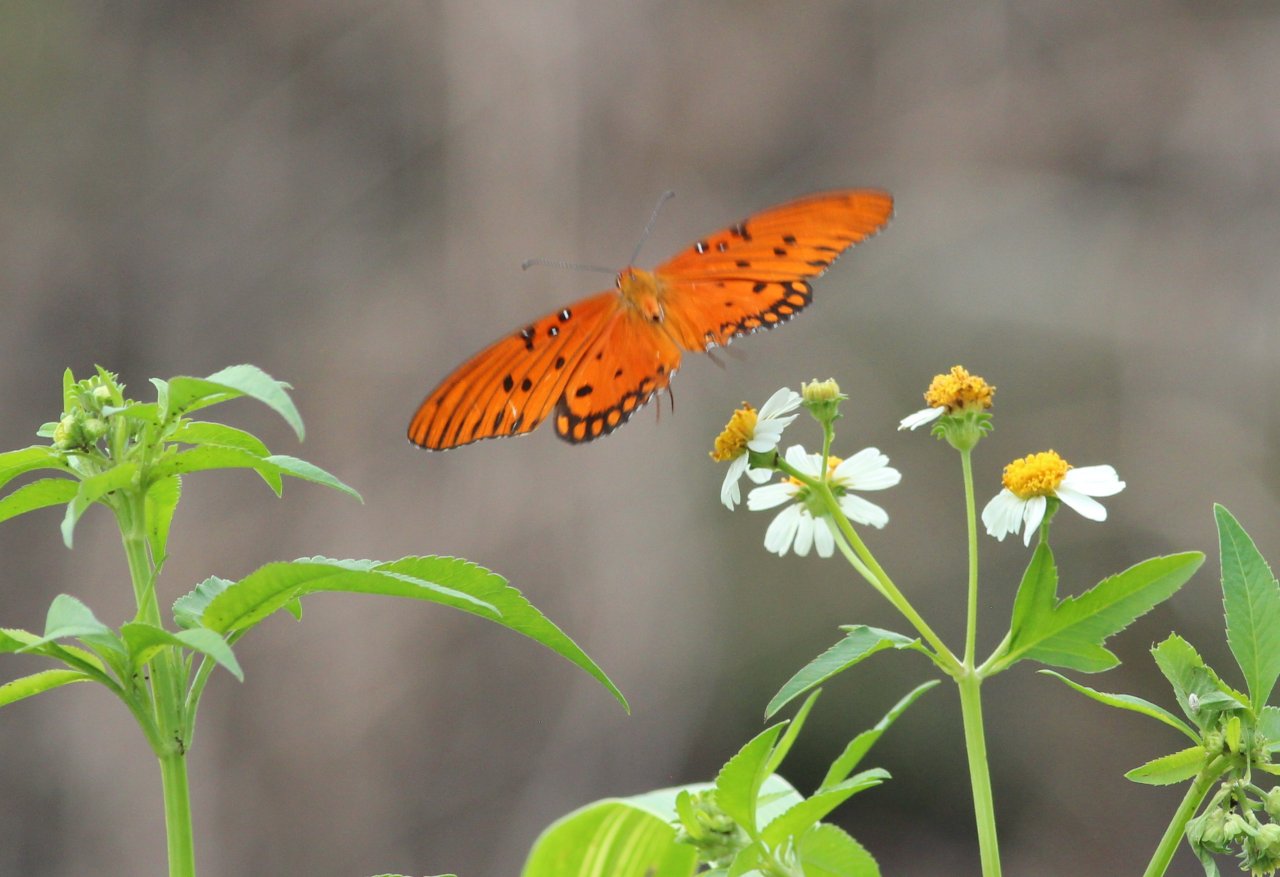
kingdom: Animalia
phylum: Arthropoda
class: Insecta
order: Lepidoptera
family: Nymphalidae
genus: Dione
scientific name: Dione vanillae
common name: Gulf Fritillary
